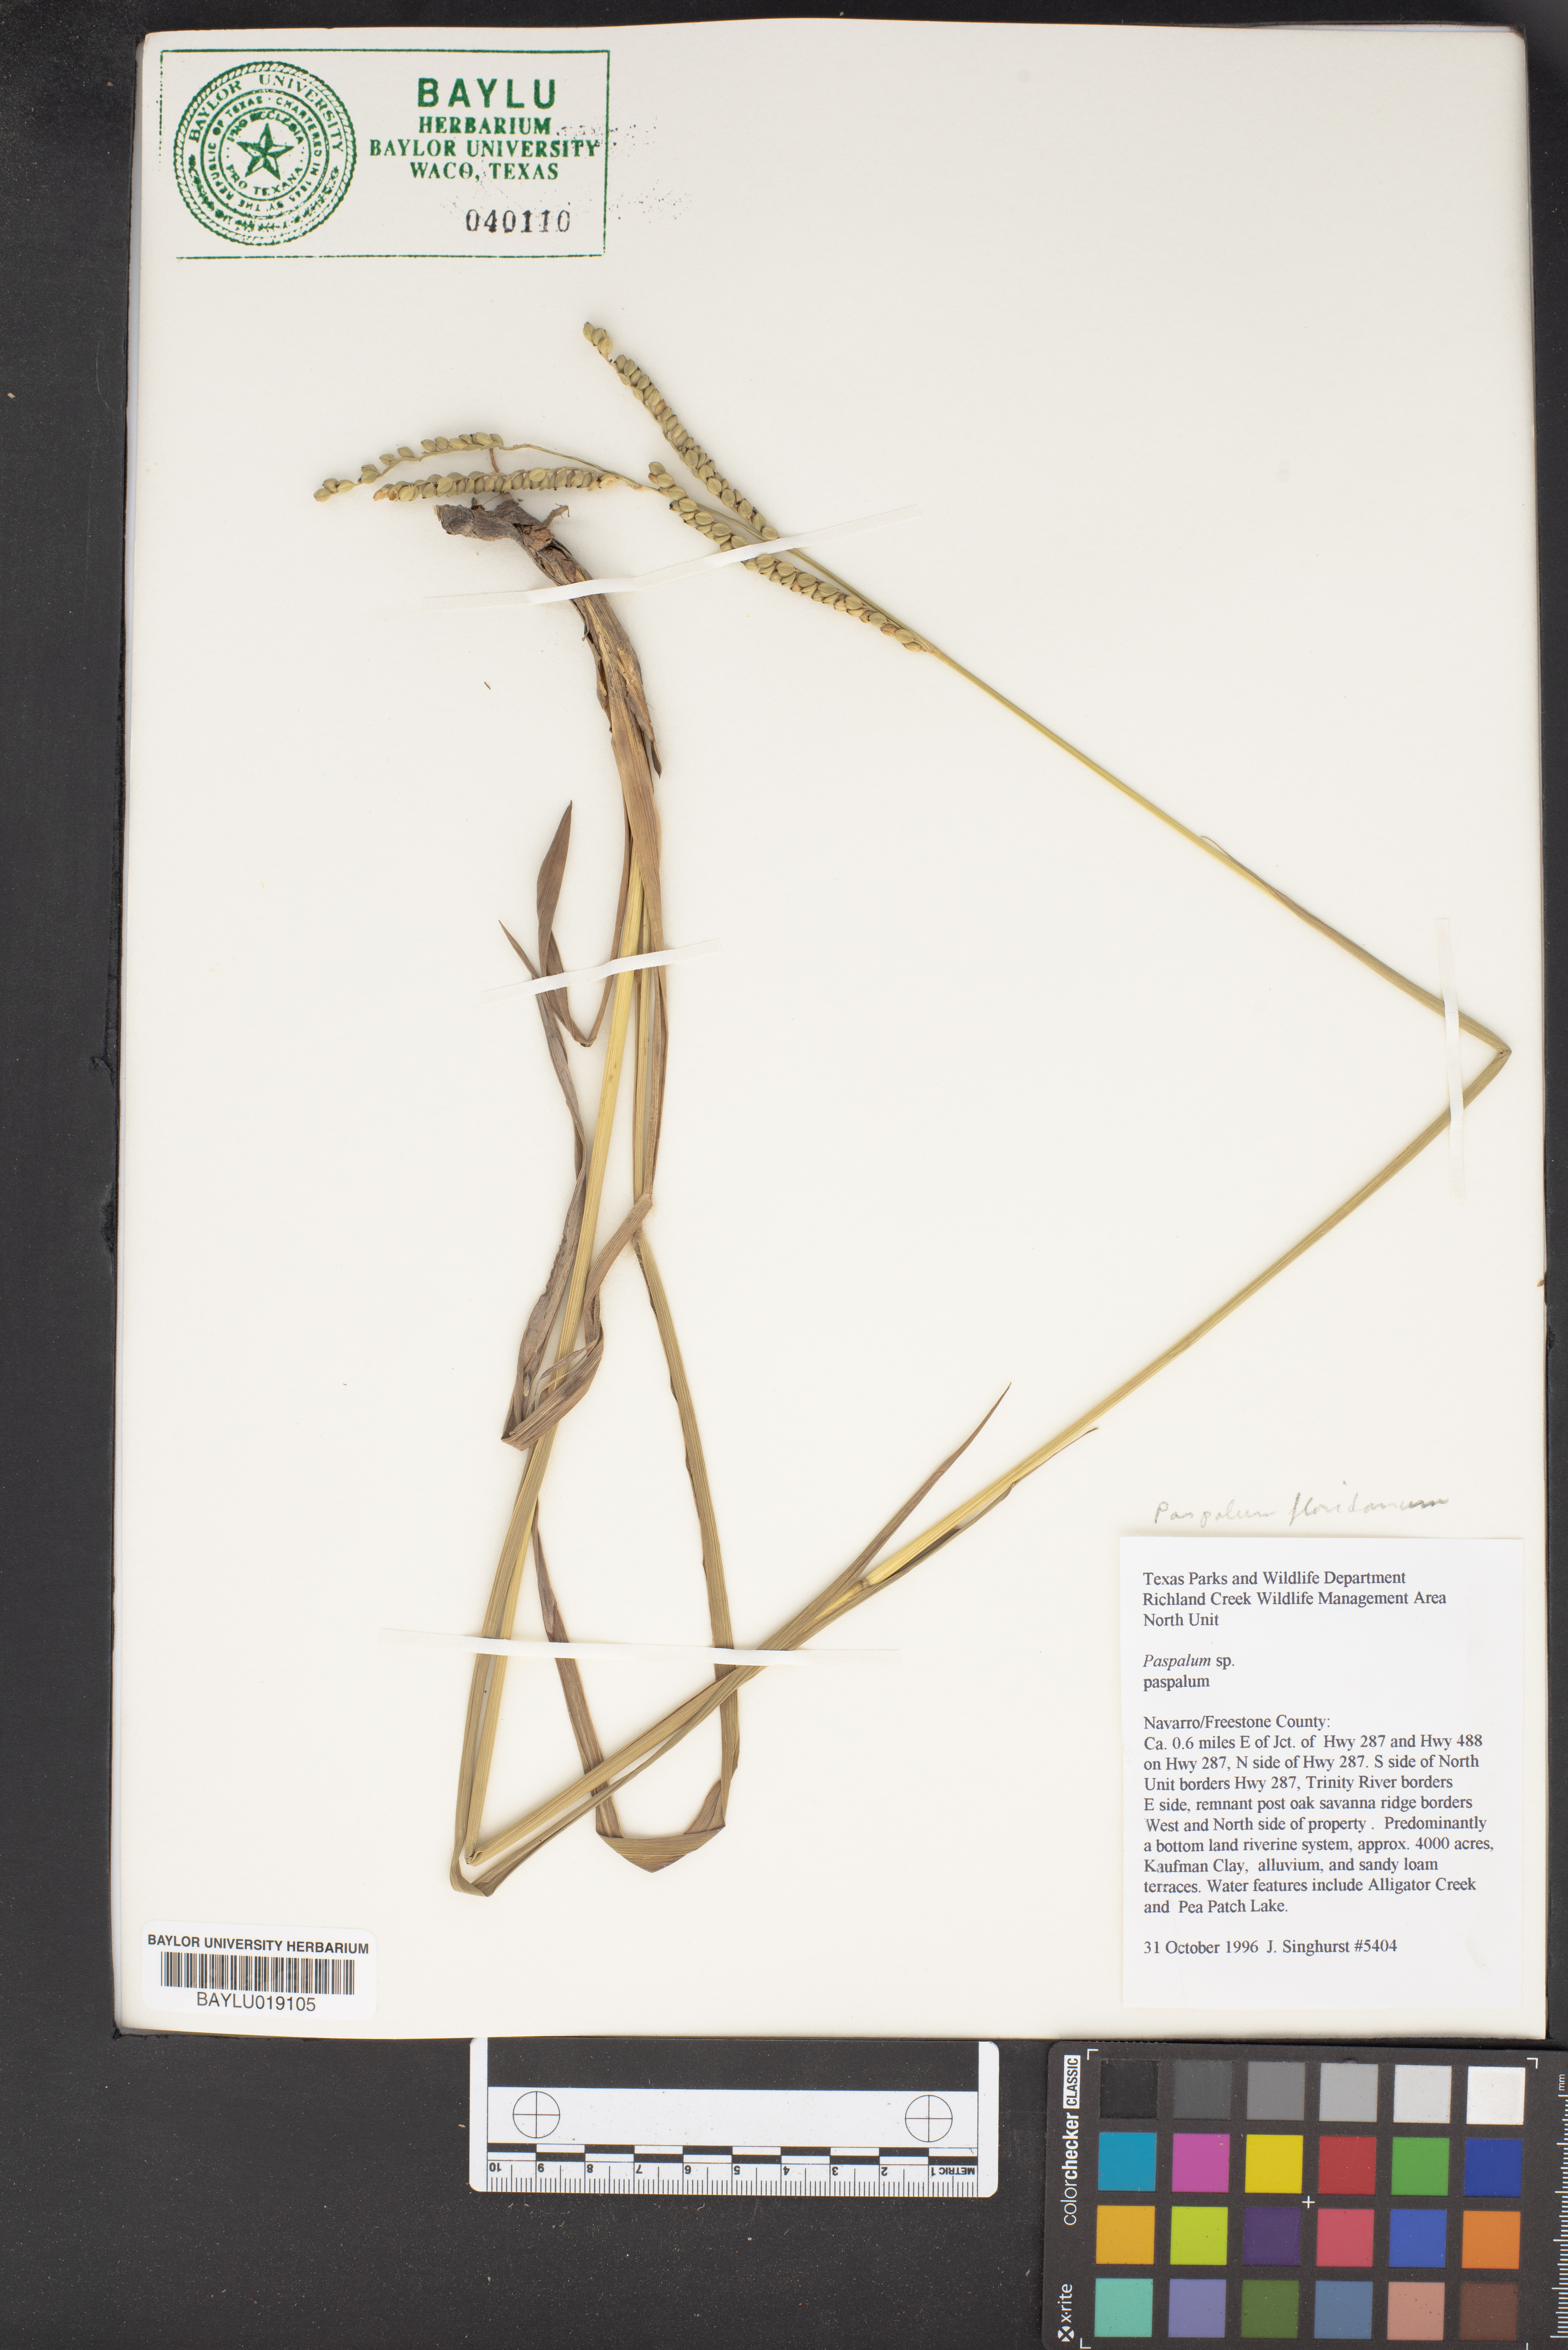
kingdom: Plantae
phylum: Tracheophyta
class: Liliopsida
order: Poales
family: Poaceae
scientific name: Poaceae
